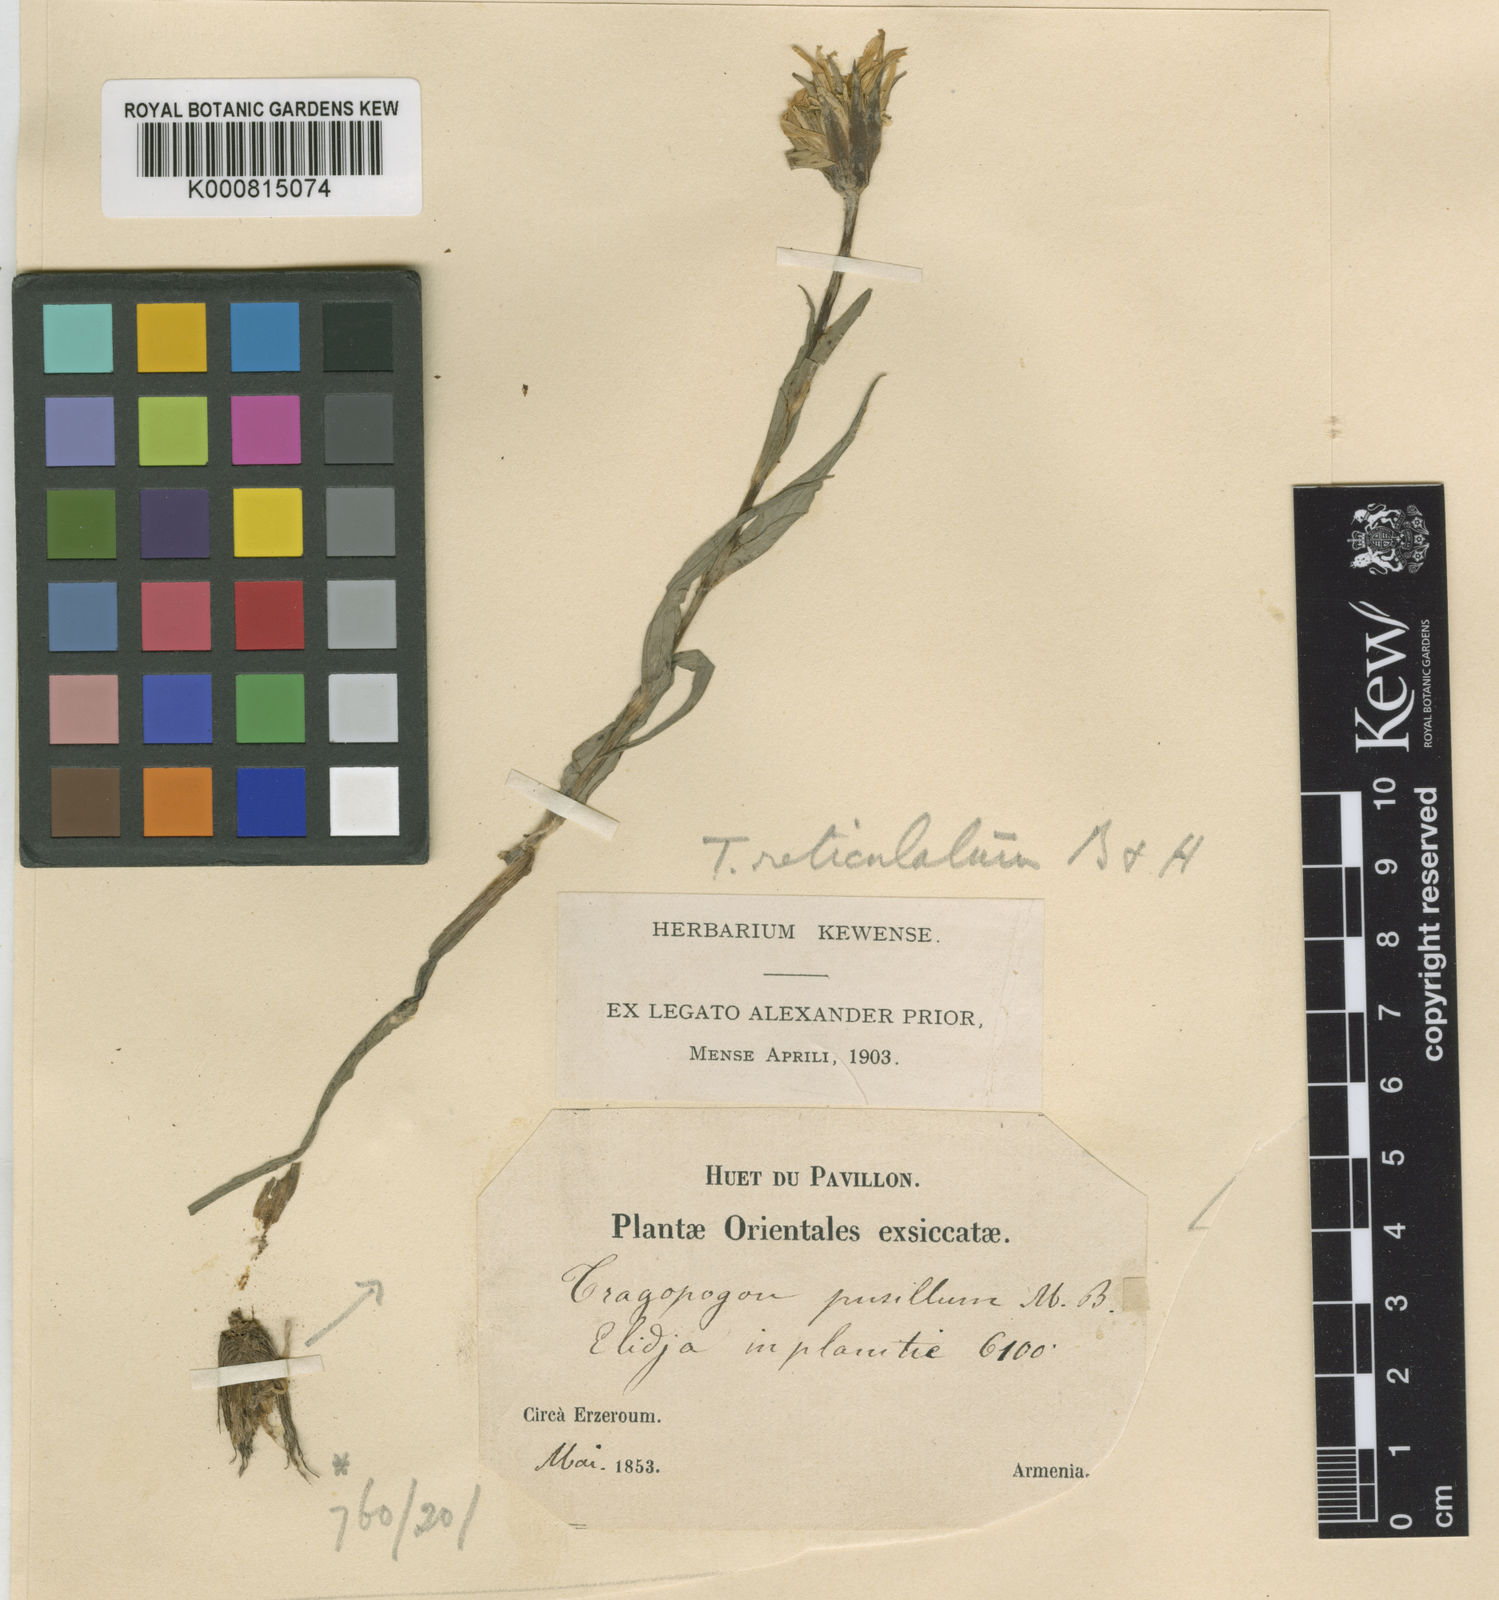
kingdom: Plantae
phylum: Tracheophyta
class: Magnoliopsida
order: Asterales
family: Asteraceae
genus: Tragopogon
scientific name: Tragopogon reticulatus
